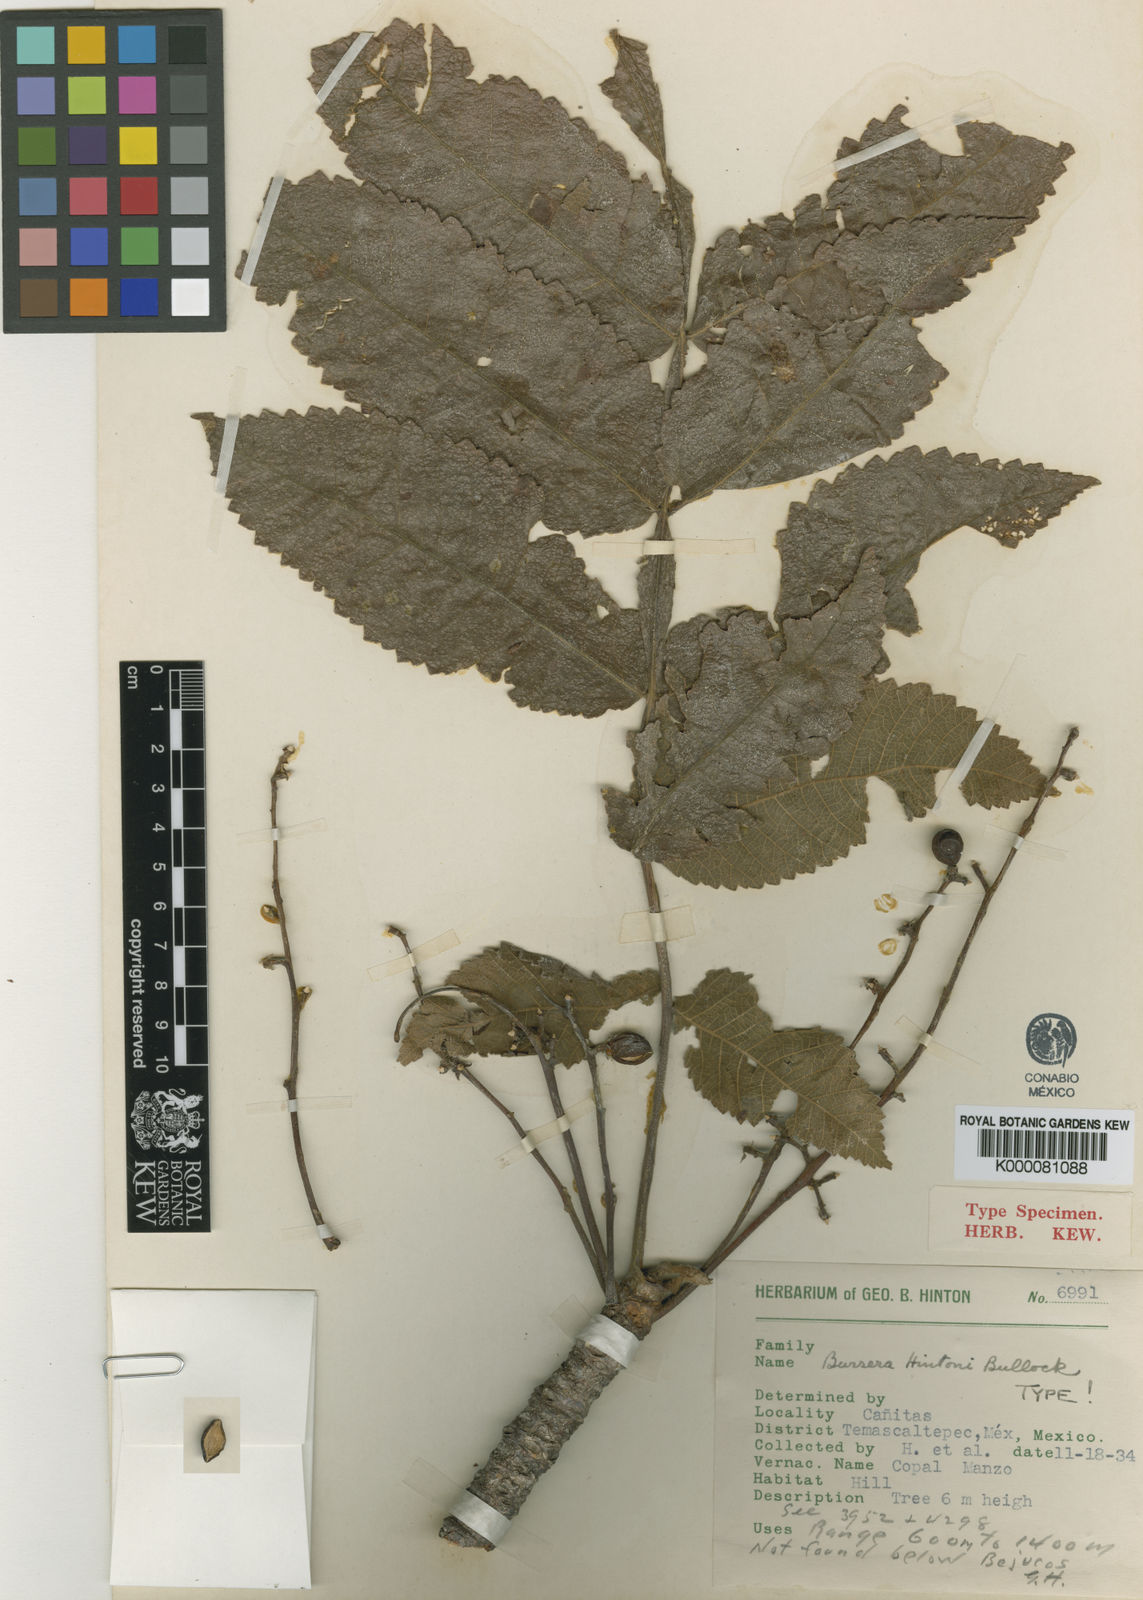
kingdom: Plantae
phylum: Tracheophyta
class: Magnoliopsida
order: Sapindales
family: Burseraceae
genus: Bursera
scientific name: Bursera hintonii
